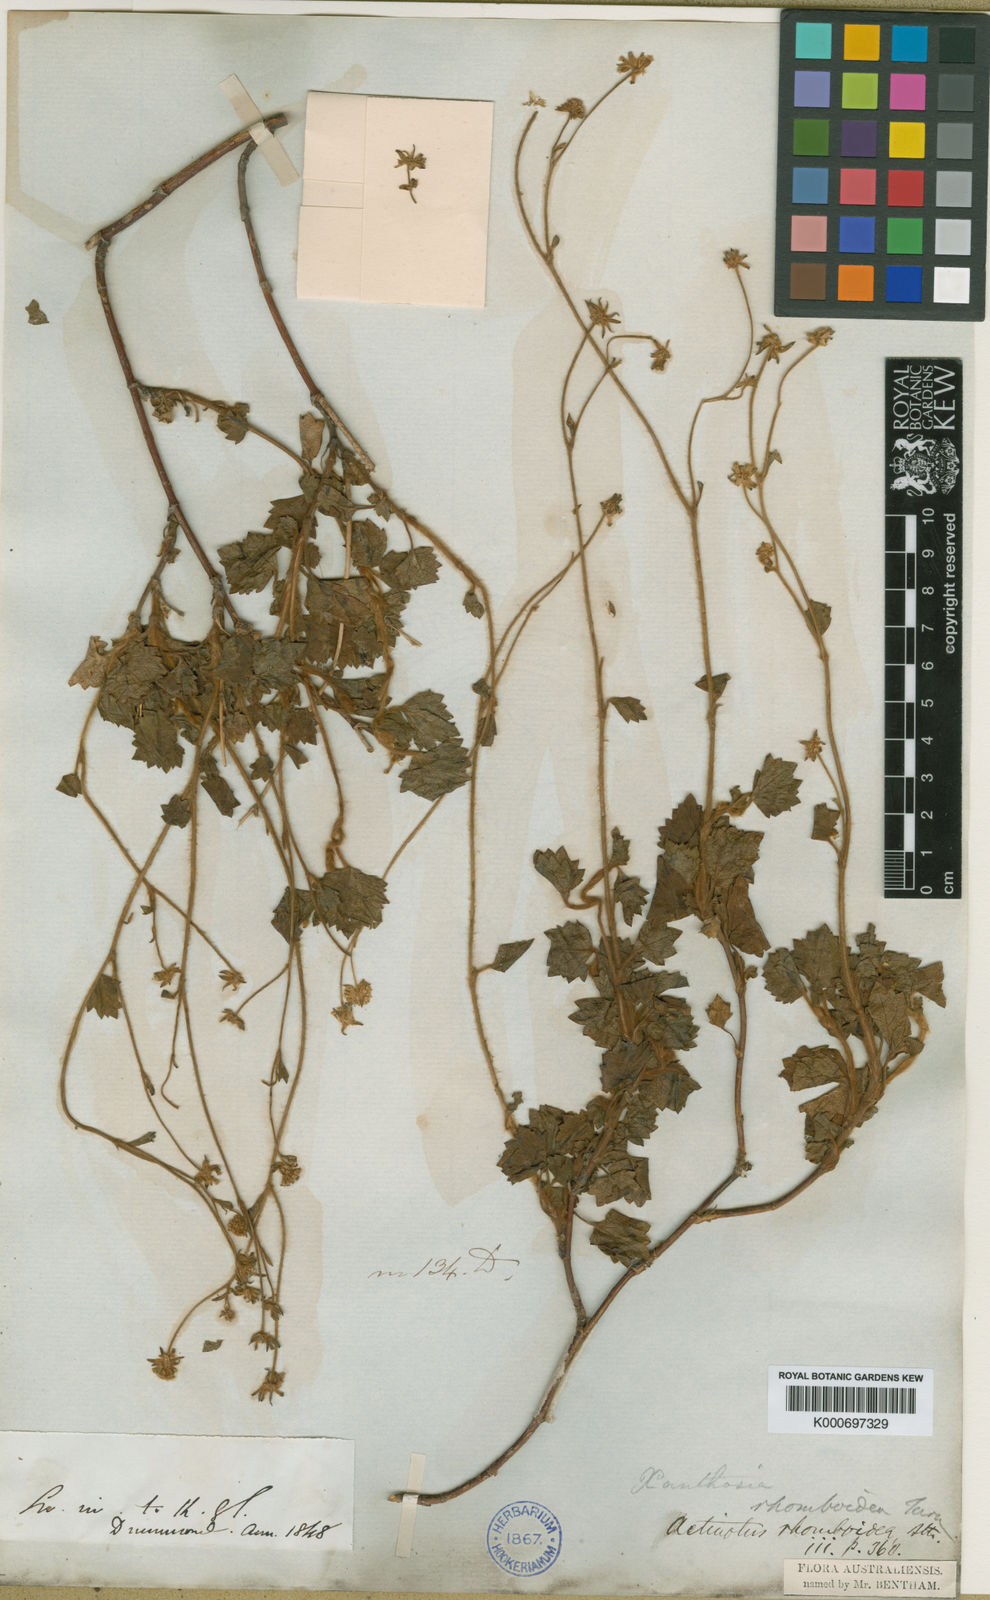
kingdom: Plantae
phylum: Tracheophyta
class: Magnoliopsida
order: Apiales
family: Apiaceae
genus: Actinotus
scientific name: Actinotus rhomboideus
